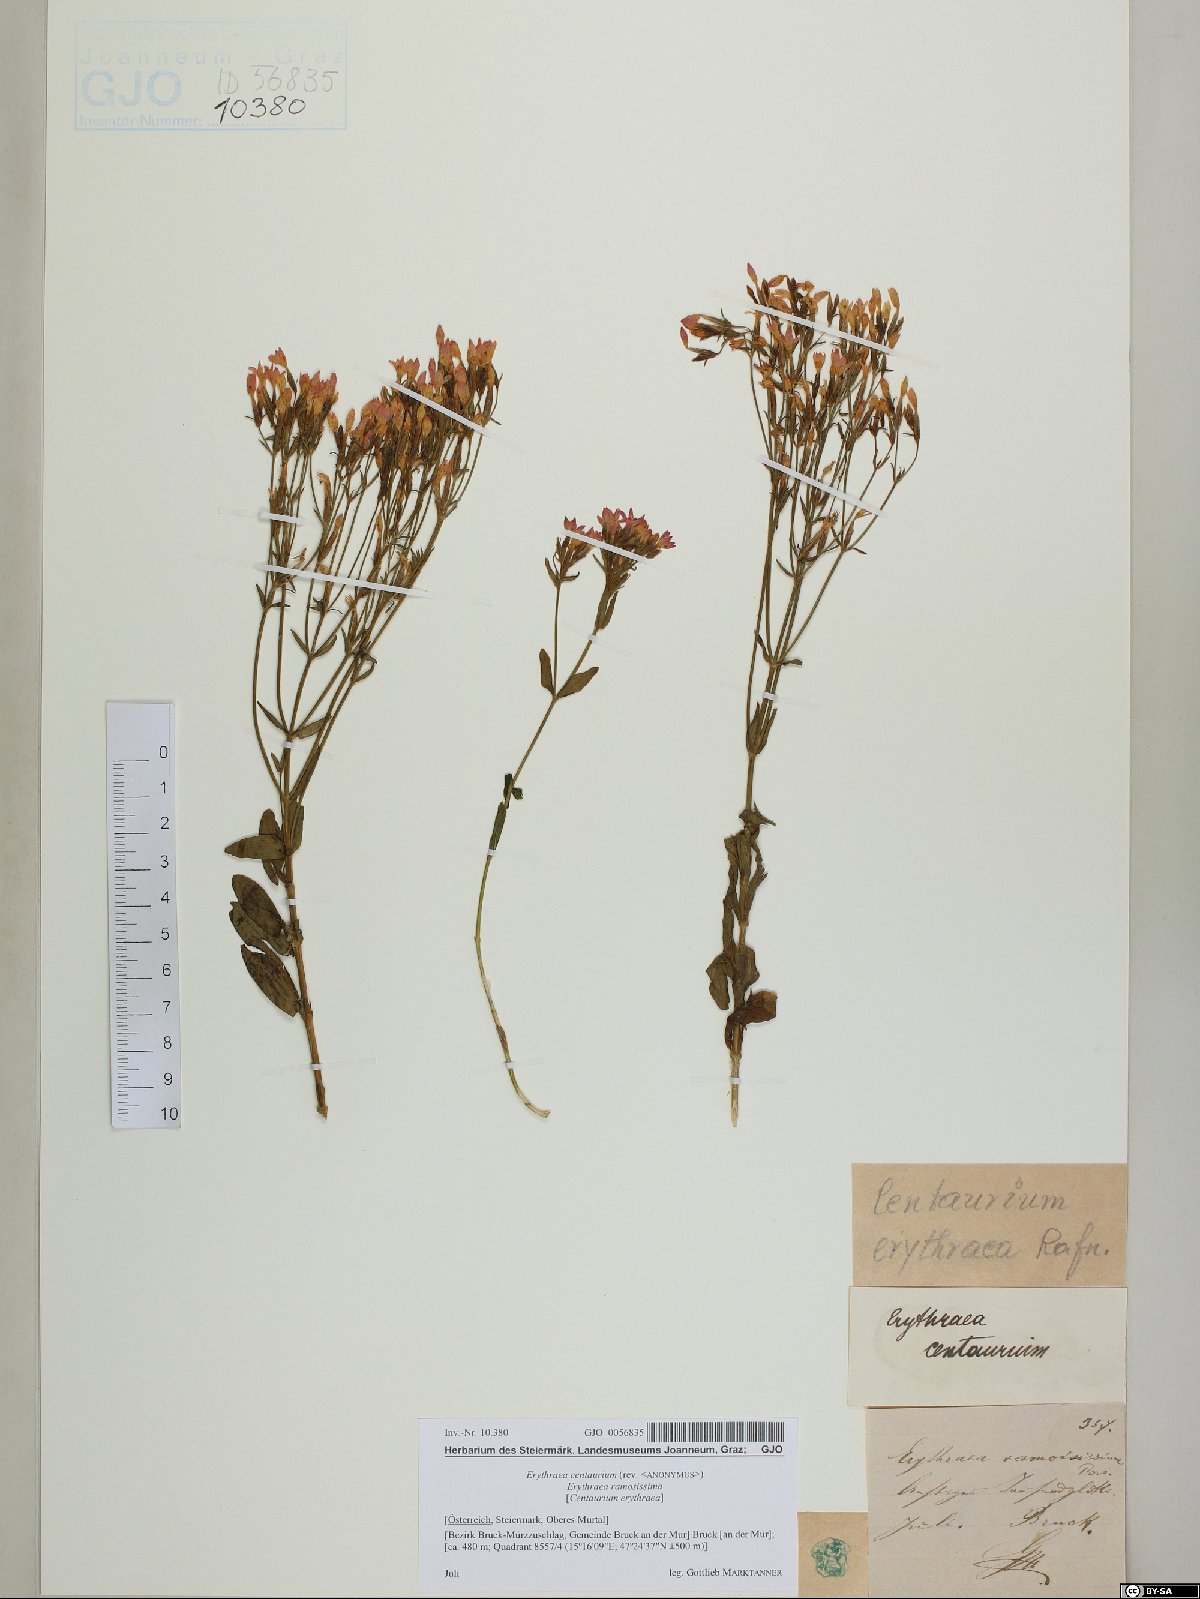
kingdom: Plantae
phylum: Tracheophyta
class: Magnoliopsida
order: Gentianales
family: Gentianaceae
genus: Centaurium
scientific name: Centaurium erythraea
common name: Common centaury
